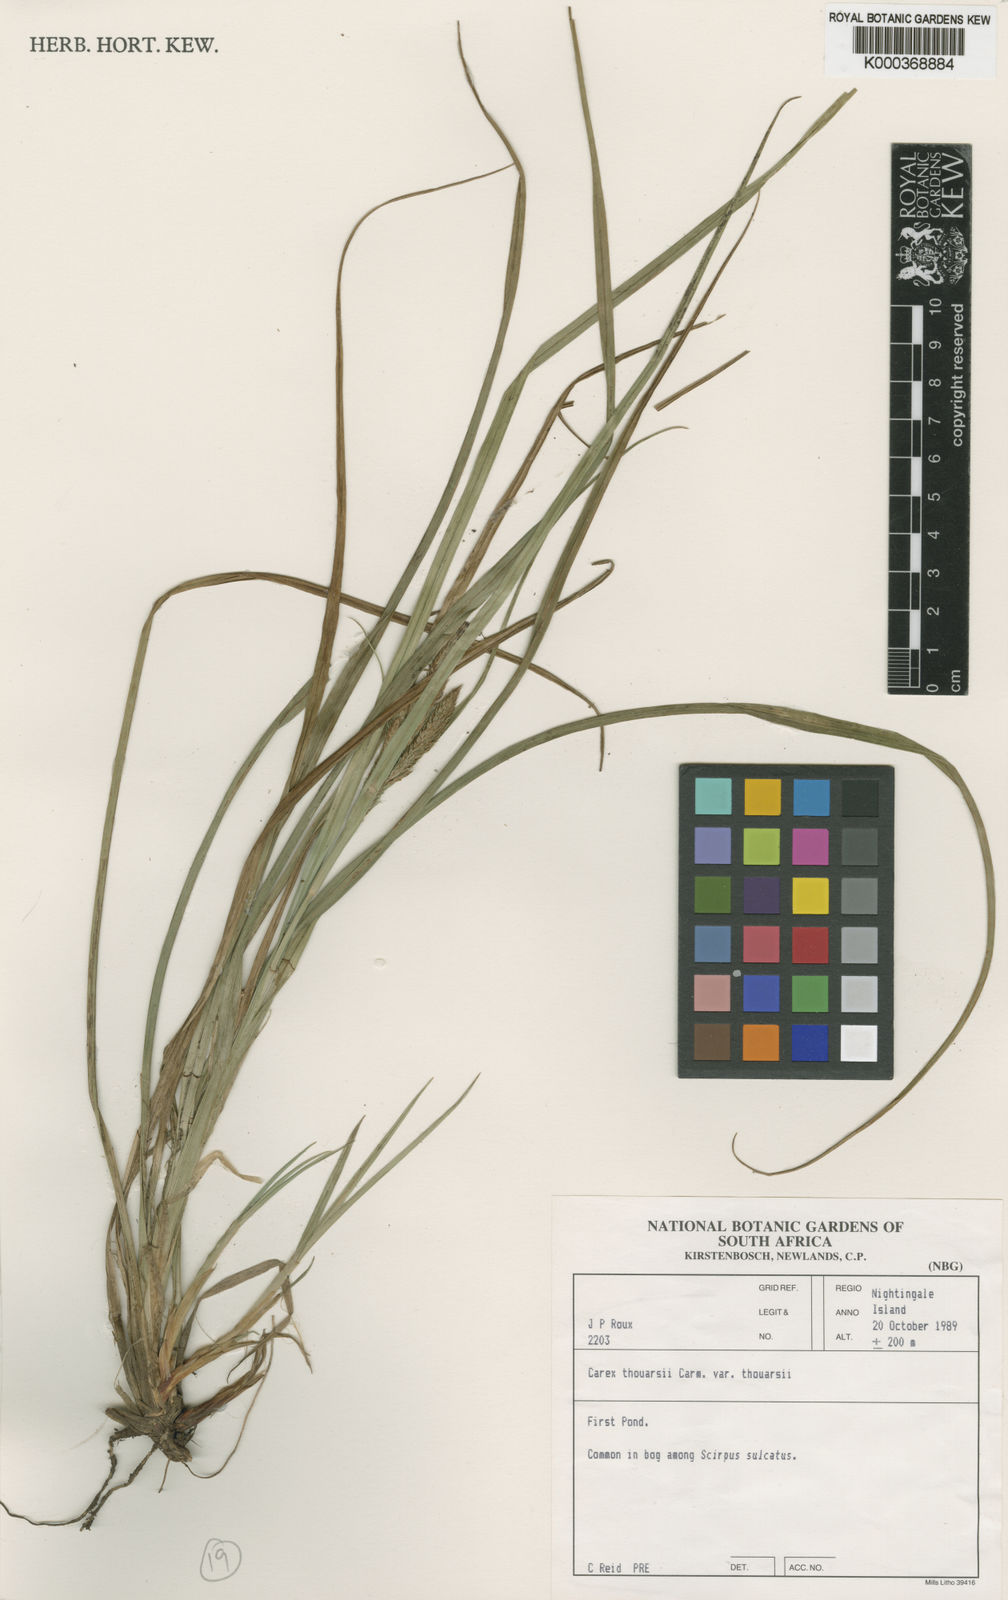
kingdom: Plantae
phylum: Tracheophyta
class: Liliopsida
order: Poales
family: Cyperaceae
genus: Carex
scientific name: Carex thouarsii
